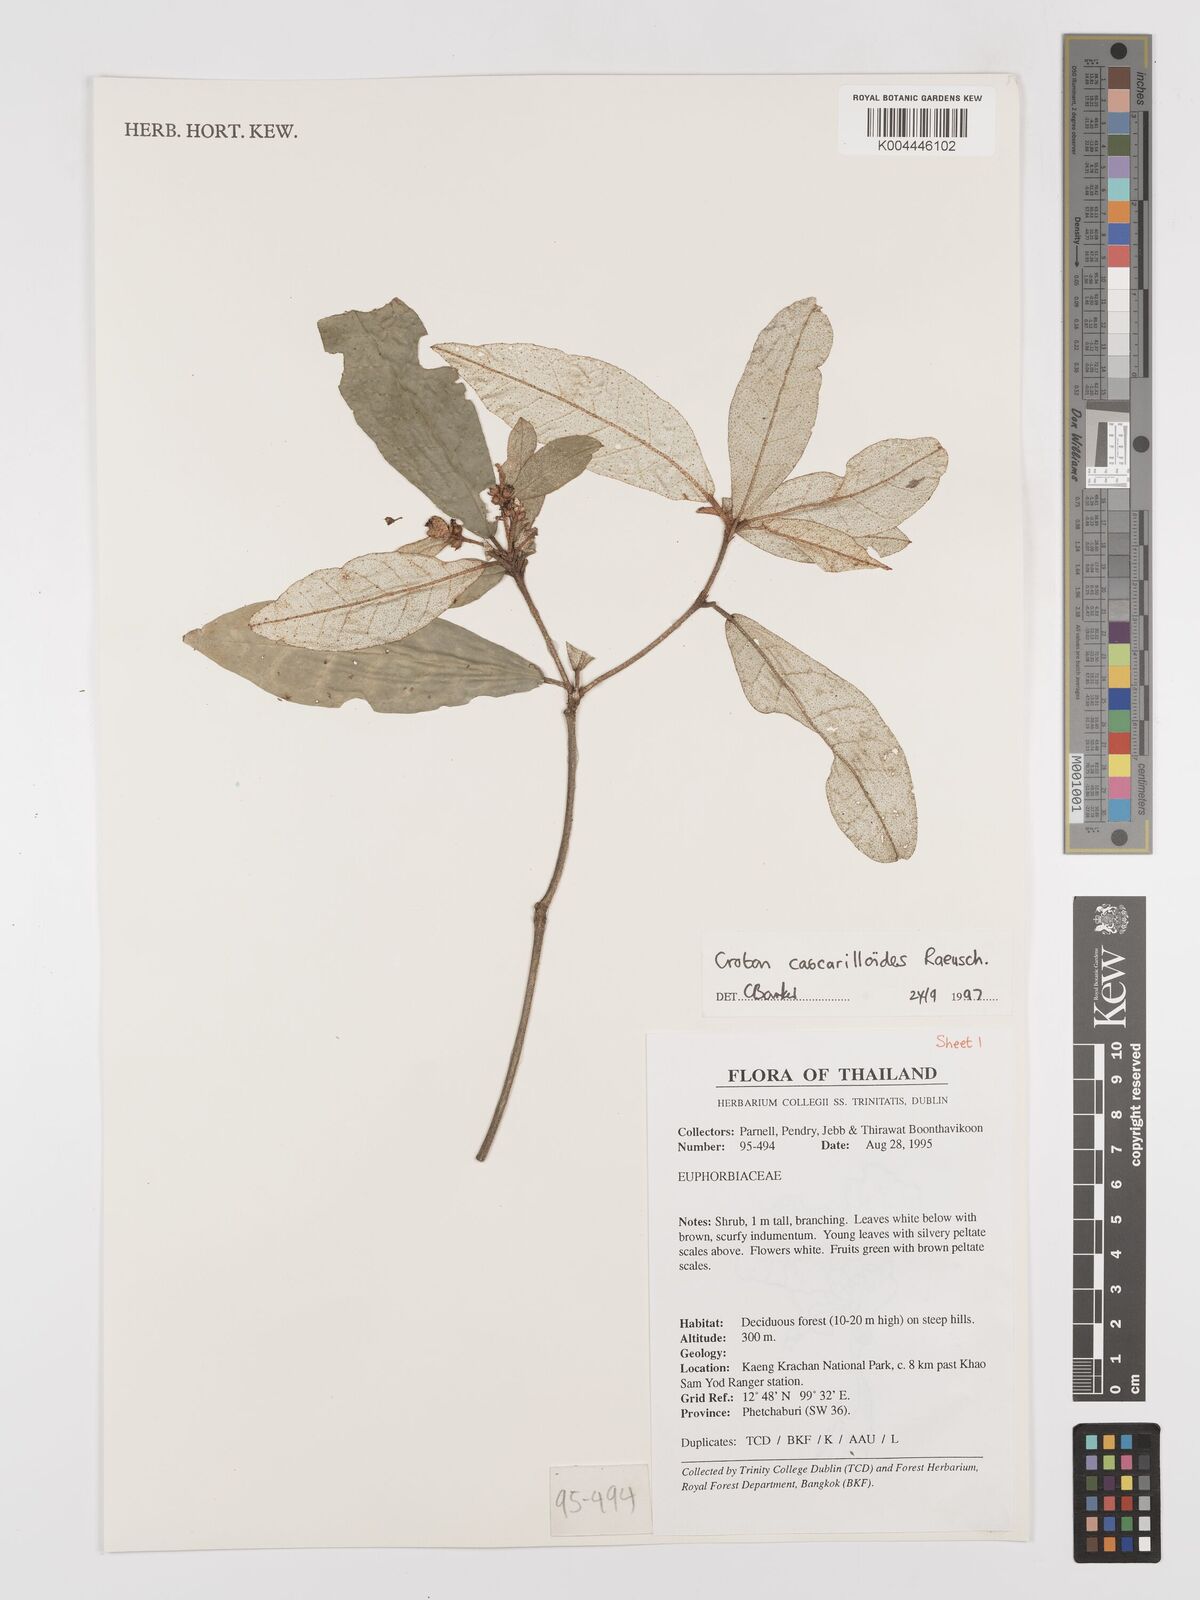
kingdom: Plantae
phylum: Tracheophyta
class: Magnoliopsida
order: Malpighiales
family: Euphorbiaceae
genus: Croton
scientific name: Croton cascarilloides
